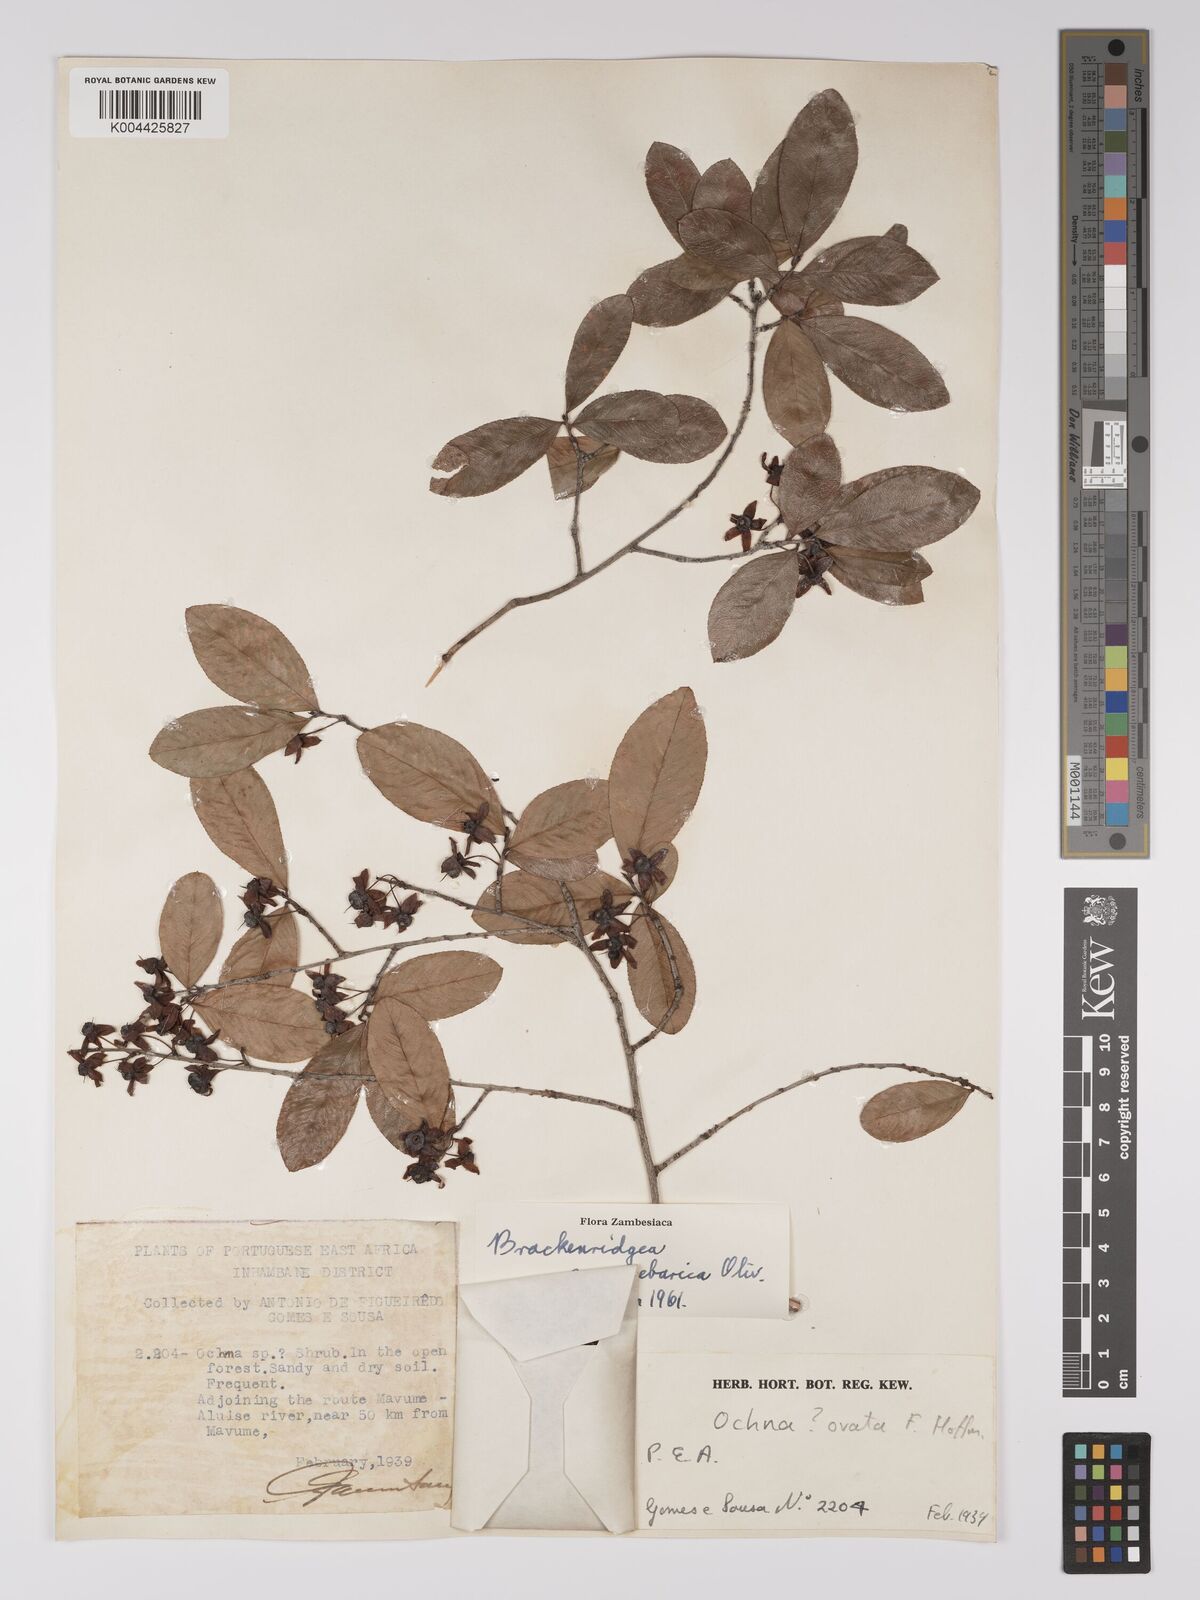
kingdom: Plantae
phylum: Tracheophyta
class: Magnoliopsida
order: Malpighiales
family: Ochnaceae
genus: Brackenridgea
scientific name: Brackenridgea zanguebarica
